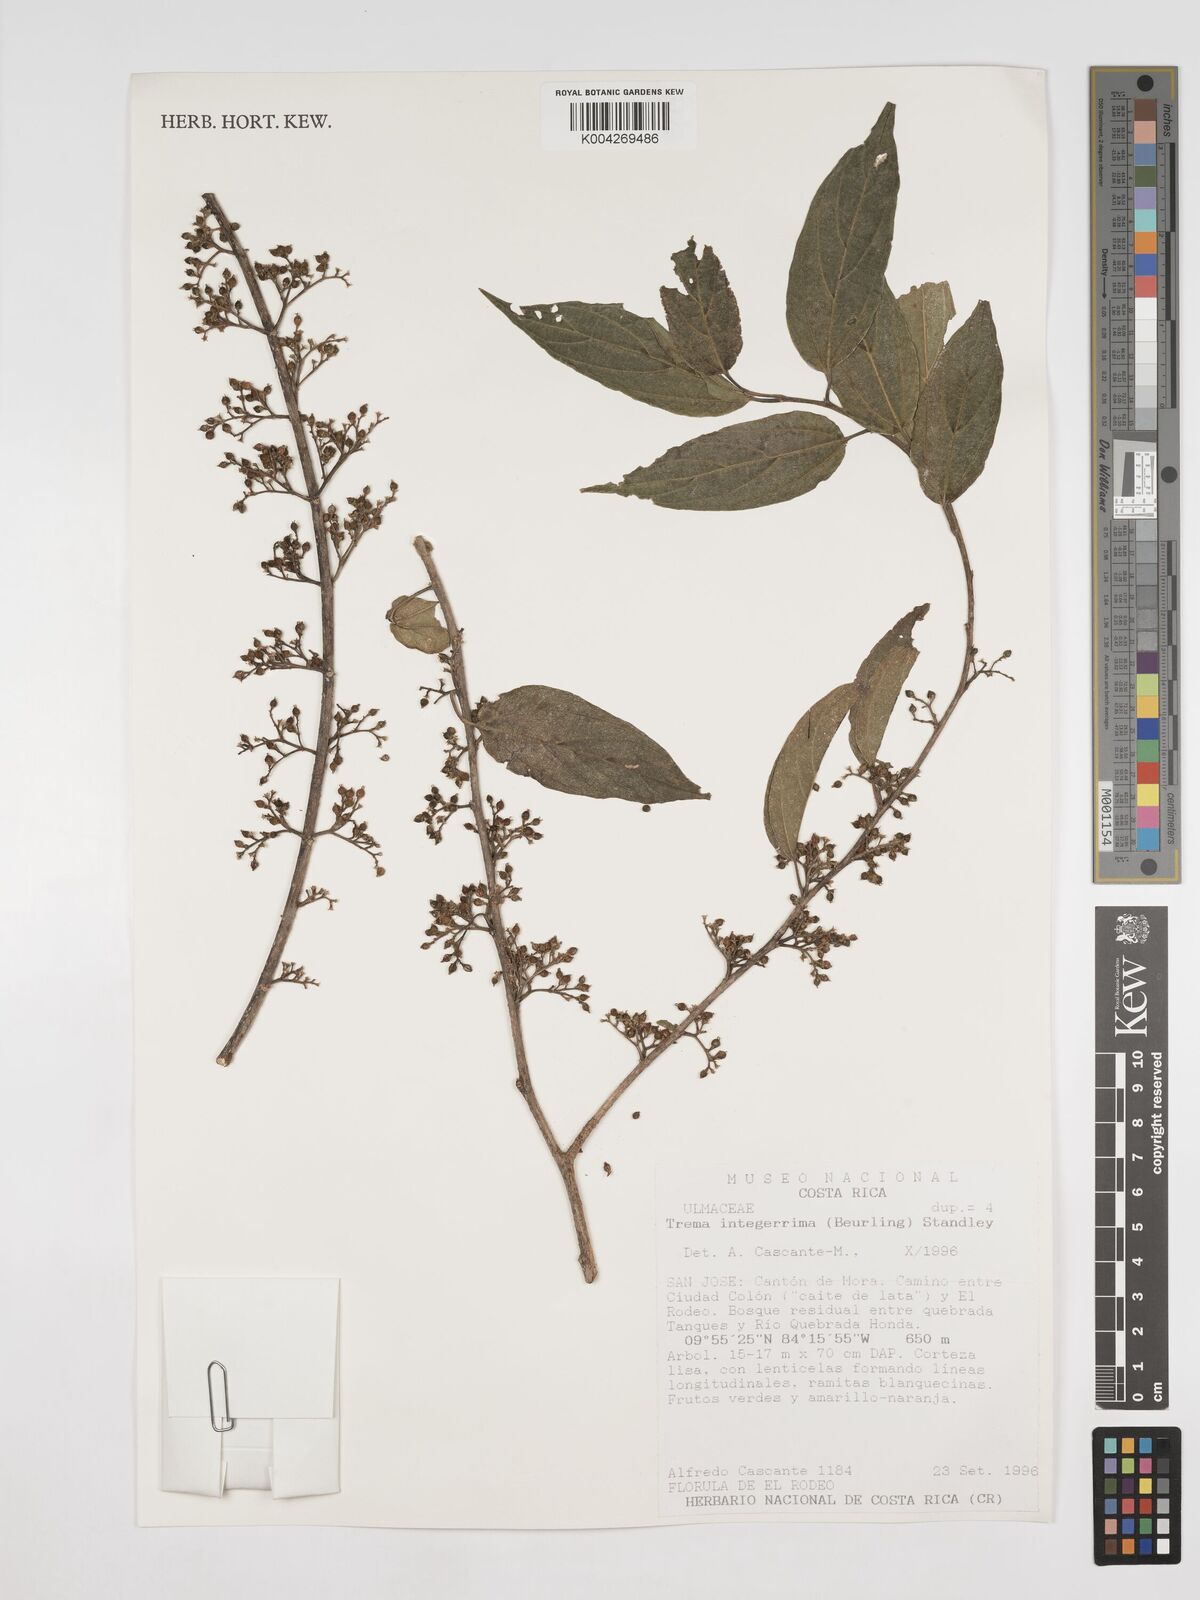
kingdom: Plantae
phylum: Tracheophyta
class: Magnoliopsida
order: Rosales
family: Cannabaceae
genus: Trema
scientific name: Trema integerrimum
